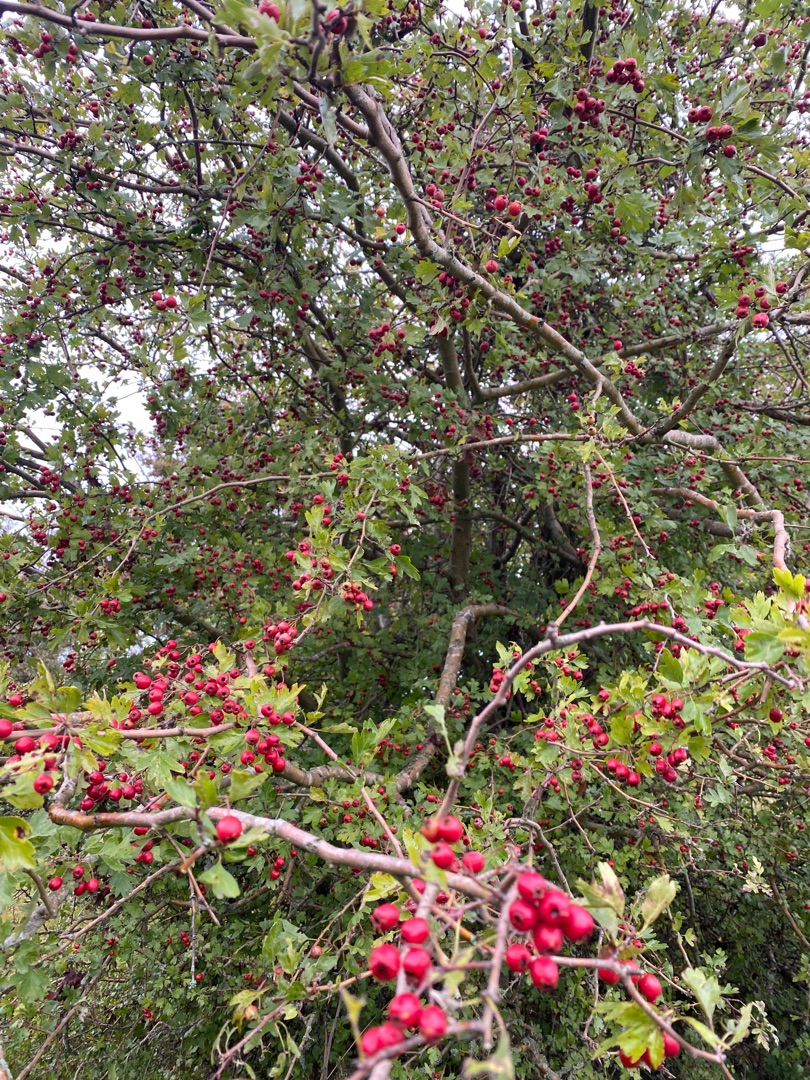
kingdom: Plantae
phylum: Tracheophyta
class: Magnoliopsida
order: Rosales
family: Rosaceae
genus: Crataegus
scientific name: Crataegus monogyna
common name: Engriflet hvidtjørn
